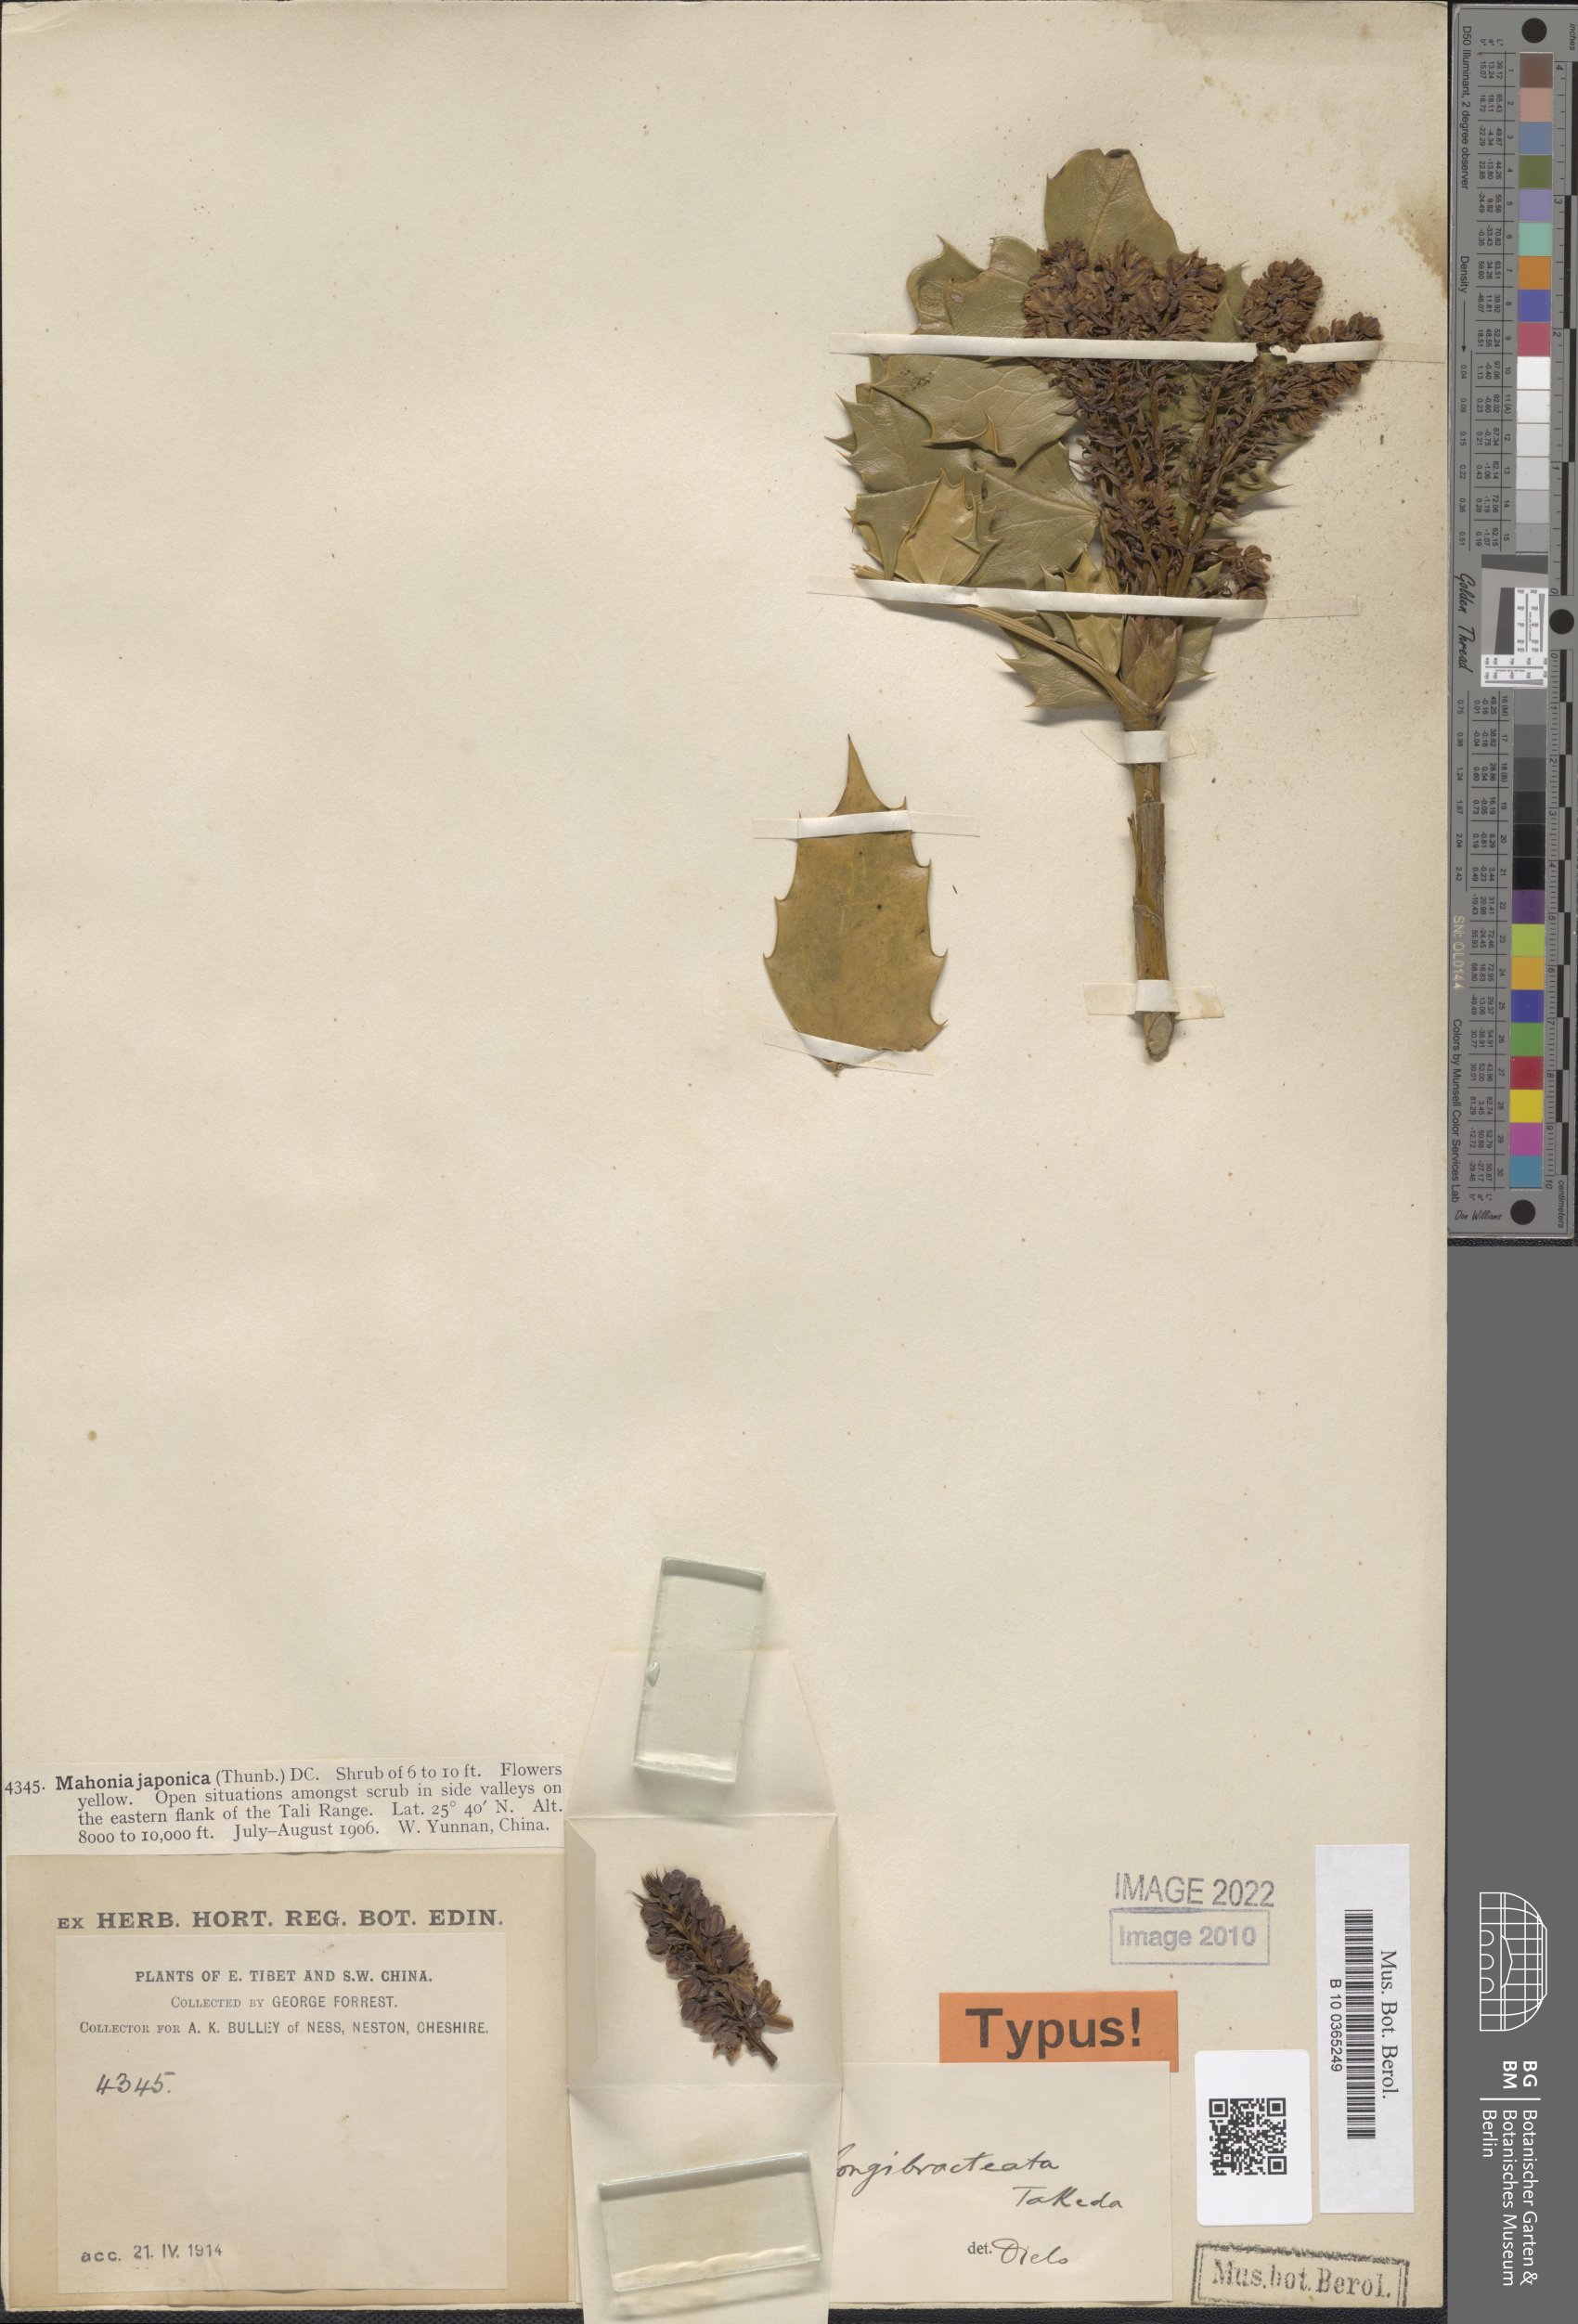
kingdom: Plantae
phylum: Tracheophyta
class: Magnoliopsida
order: Ranunculales
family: Berberidaceae
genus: Mahonia
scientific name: Mahonia longibracteata
